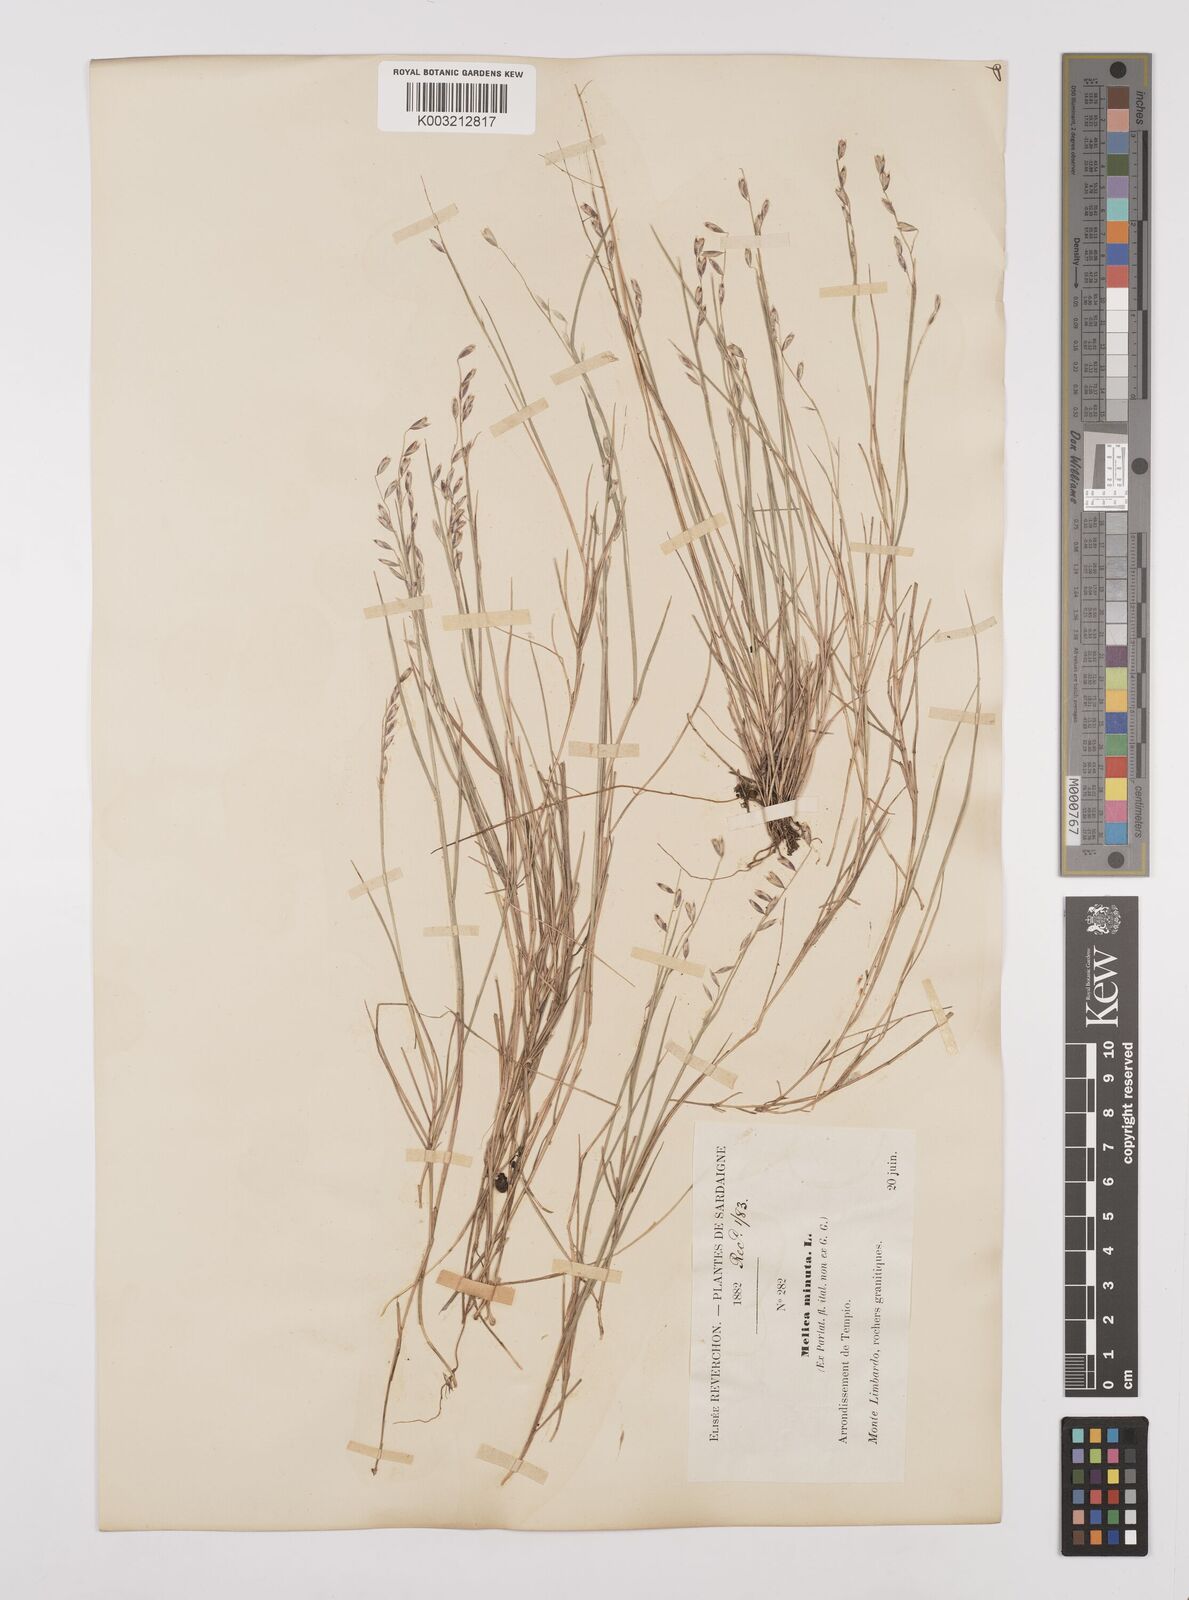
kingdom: Plantae
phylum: Tracheophyta
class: Liliopsida
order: Poales
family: Poaceae
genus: Melica
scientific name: Melica minuta
